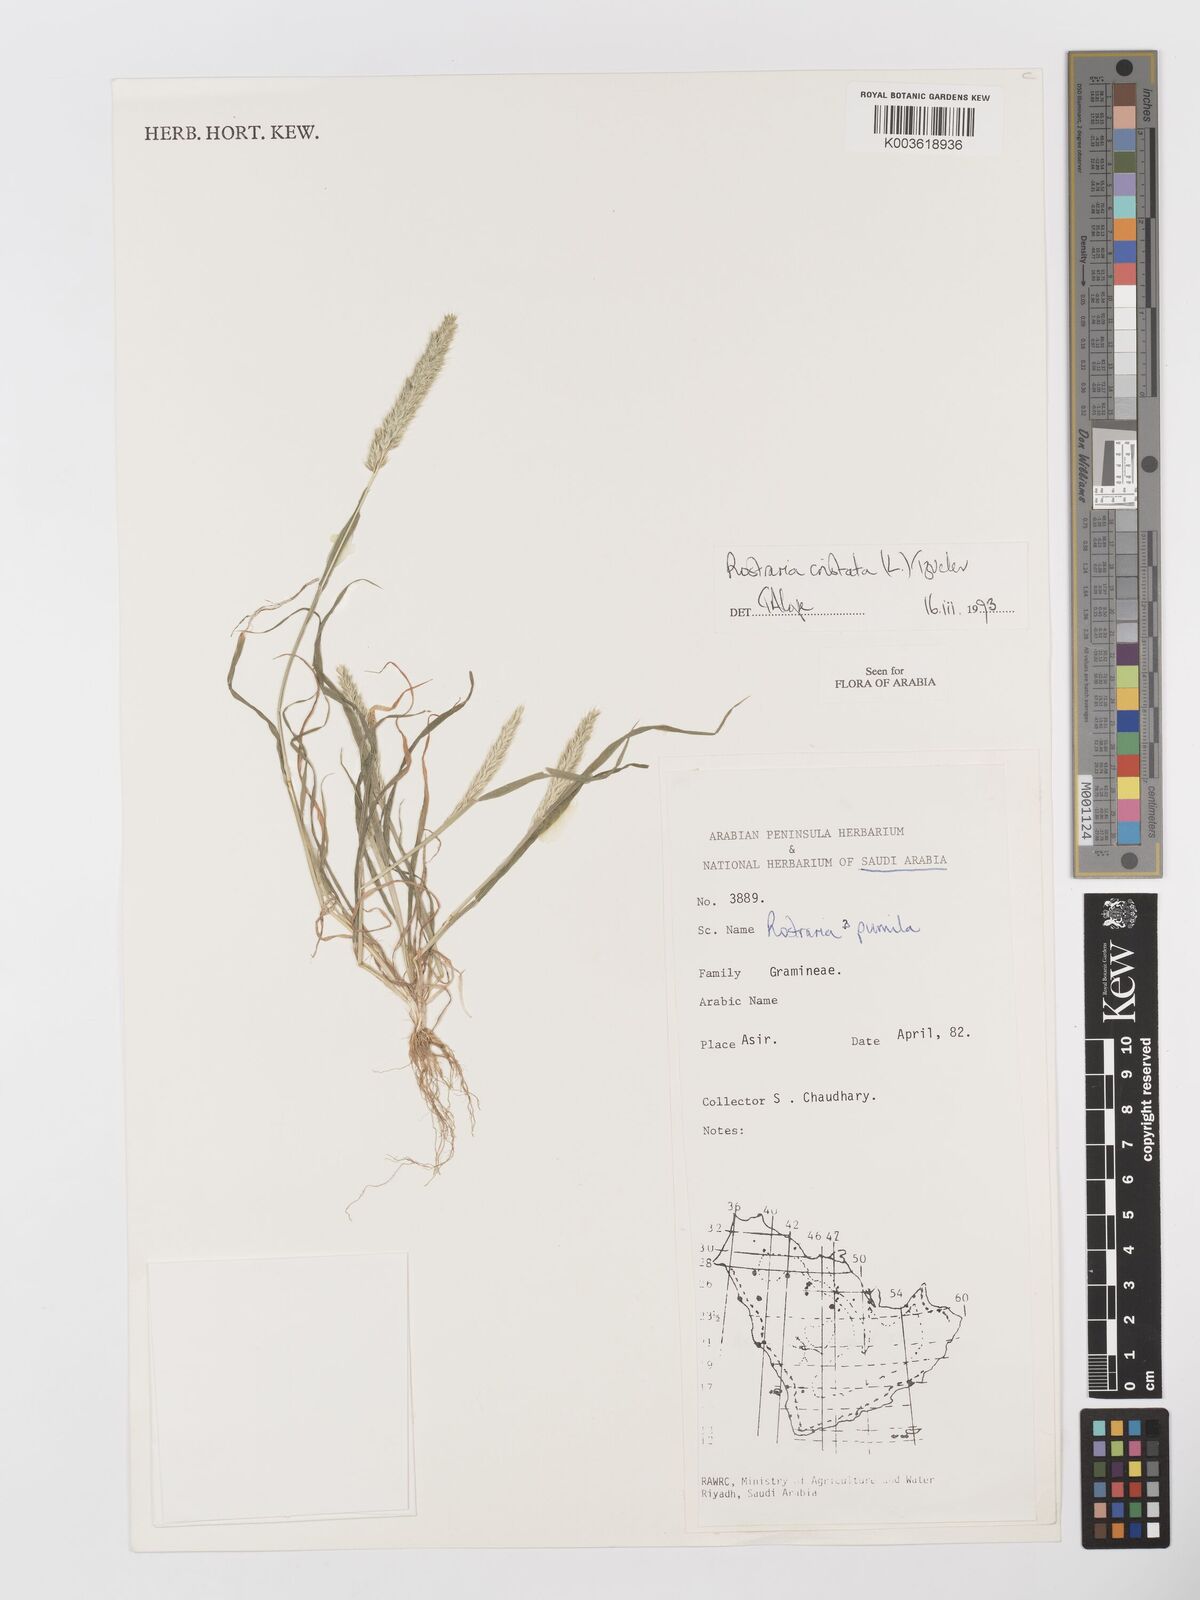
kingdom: Plantae
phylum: Tracheophyta
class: Liliopsida
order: Poales
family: Poaceae
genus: Rostraria
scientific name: Rostraria cristata
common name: Mediterranean hair-grass
